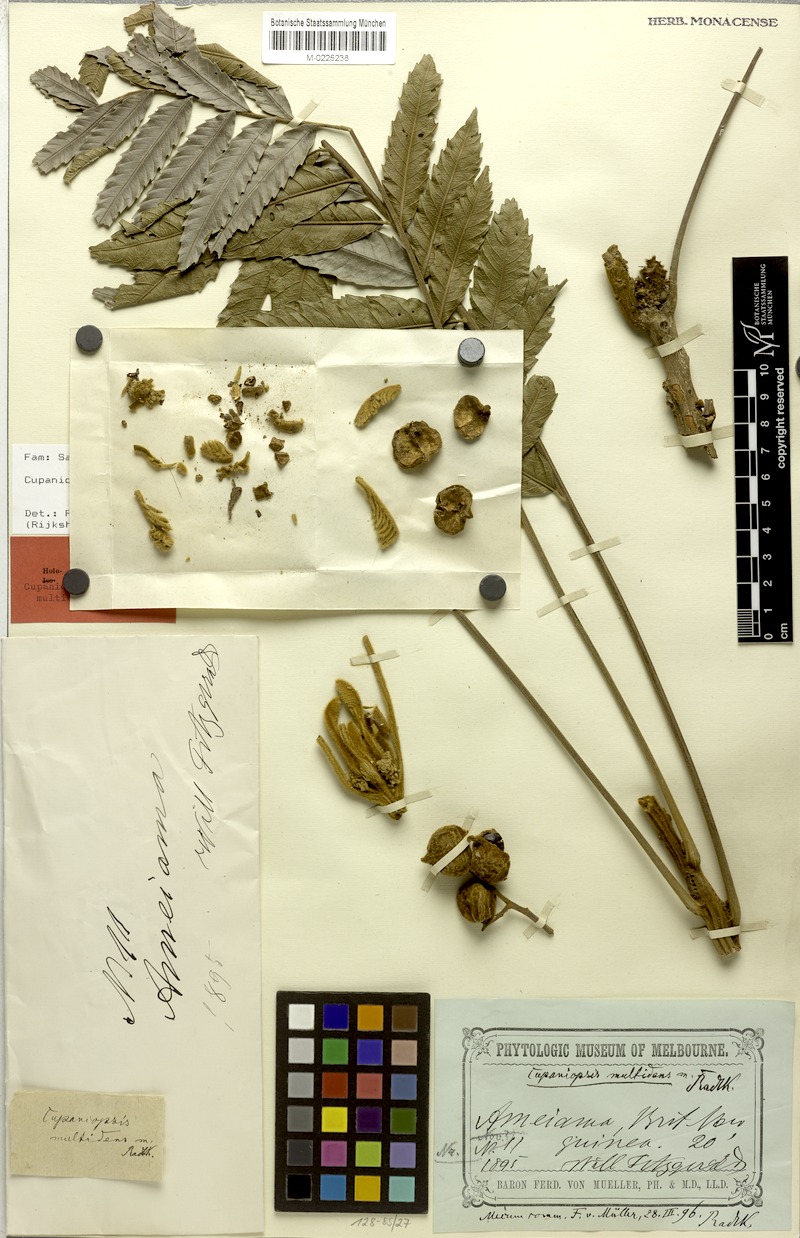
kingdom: Plantae
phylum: Tracheophyta
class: Magnoliopsida
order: Sapindales
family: Sapindaceae
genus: Cupaniopsis
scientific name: Cupaniopsis curvidens
